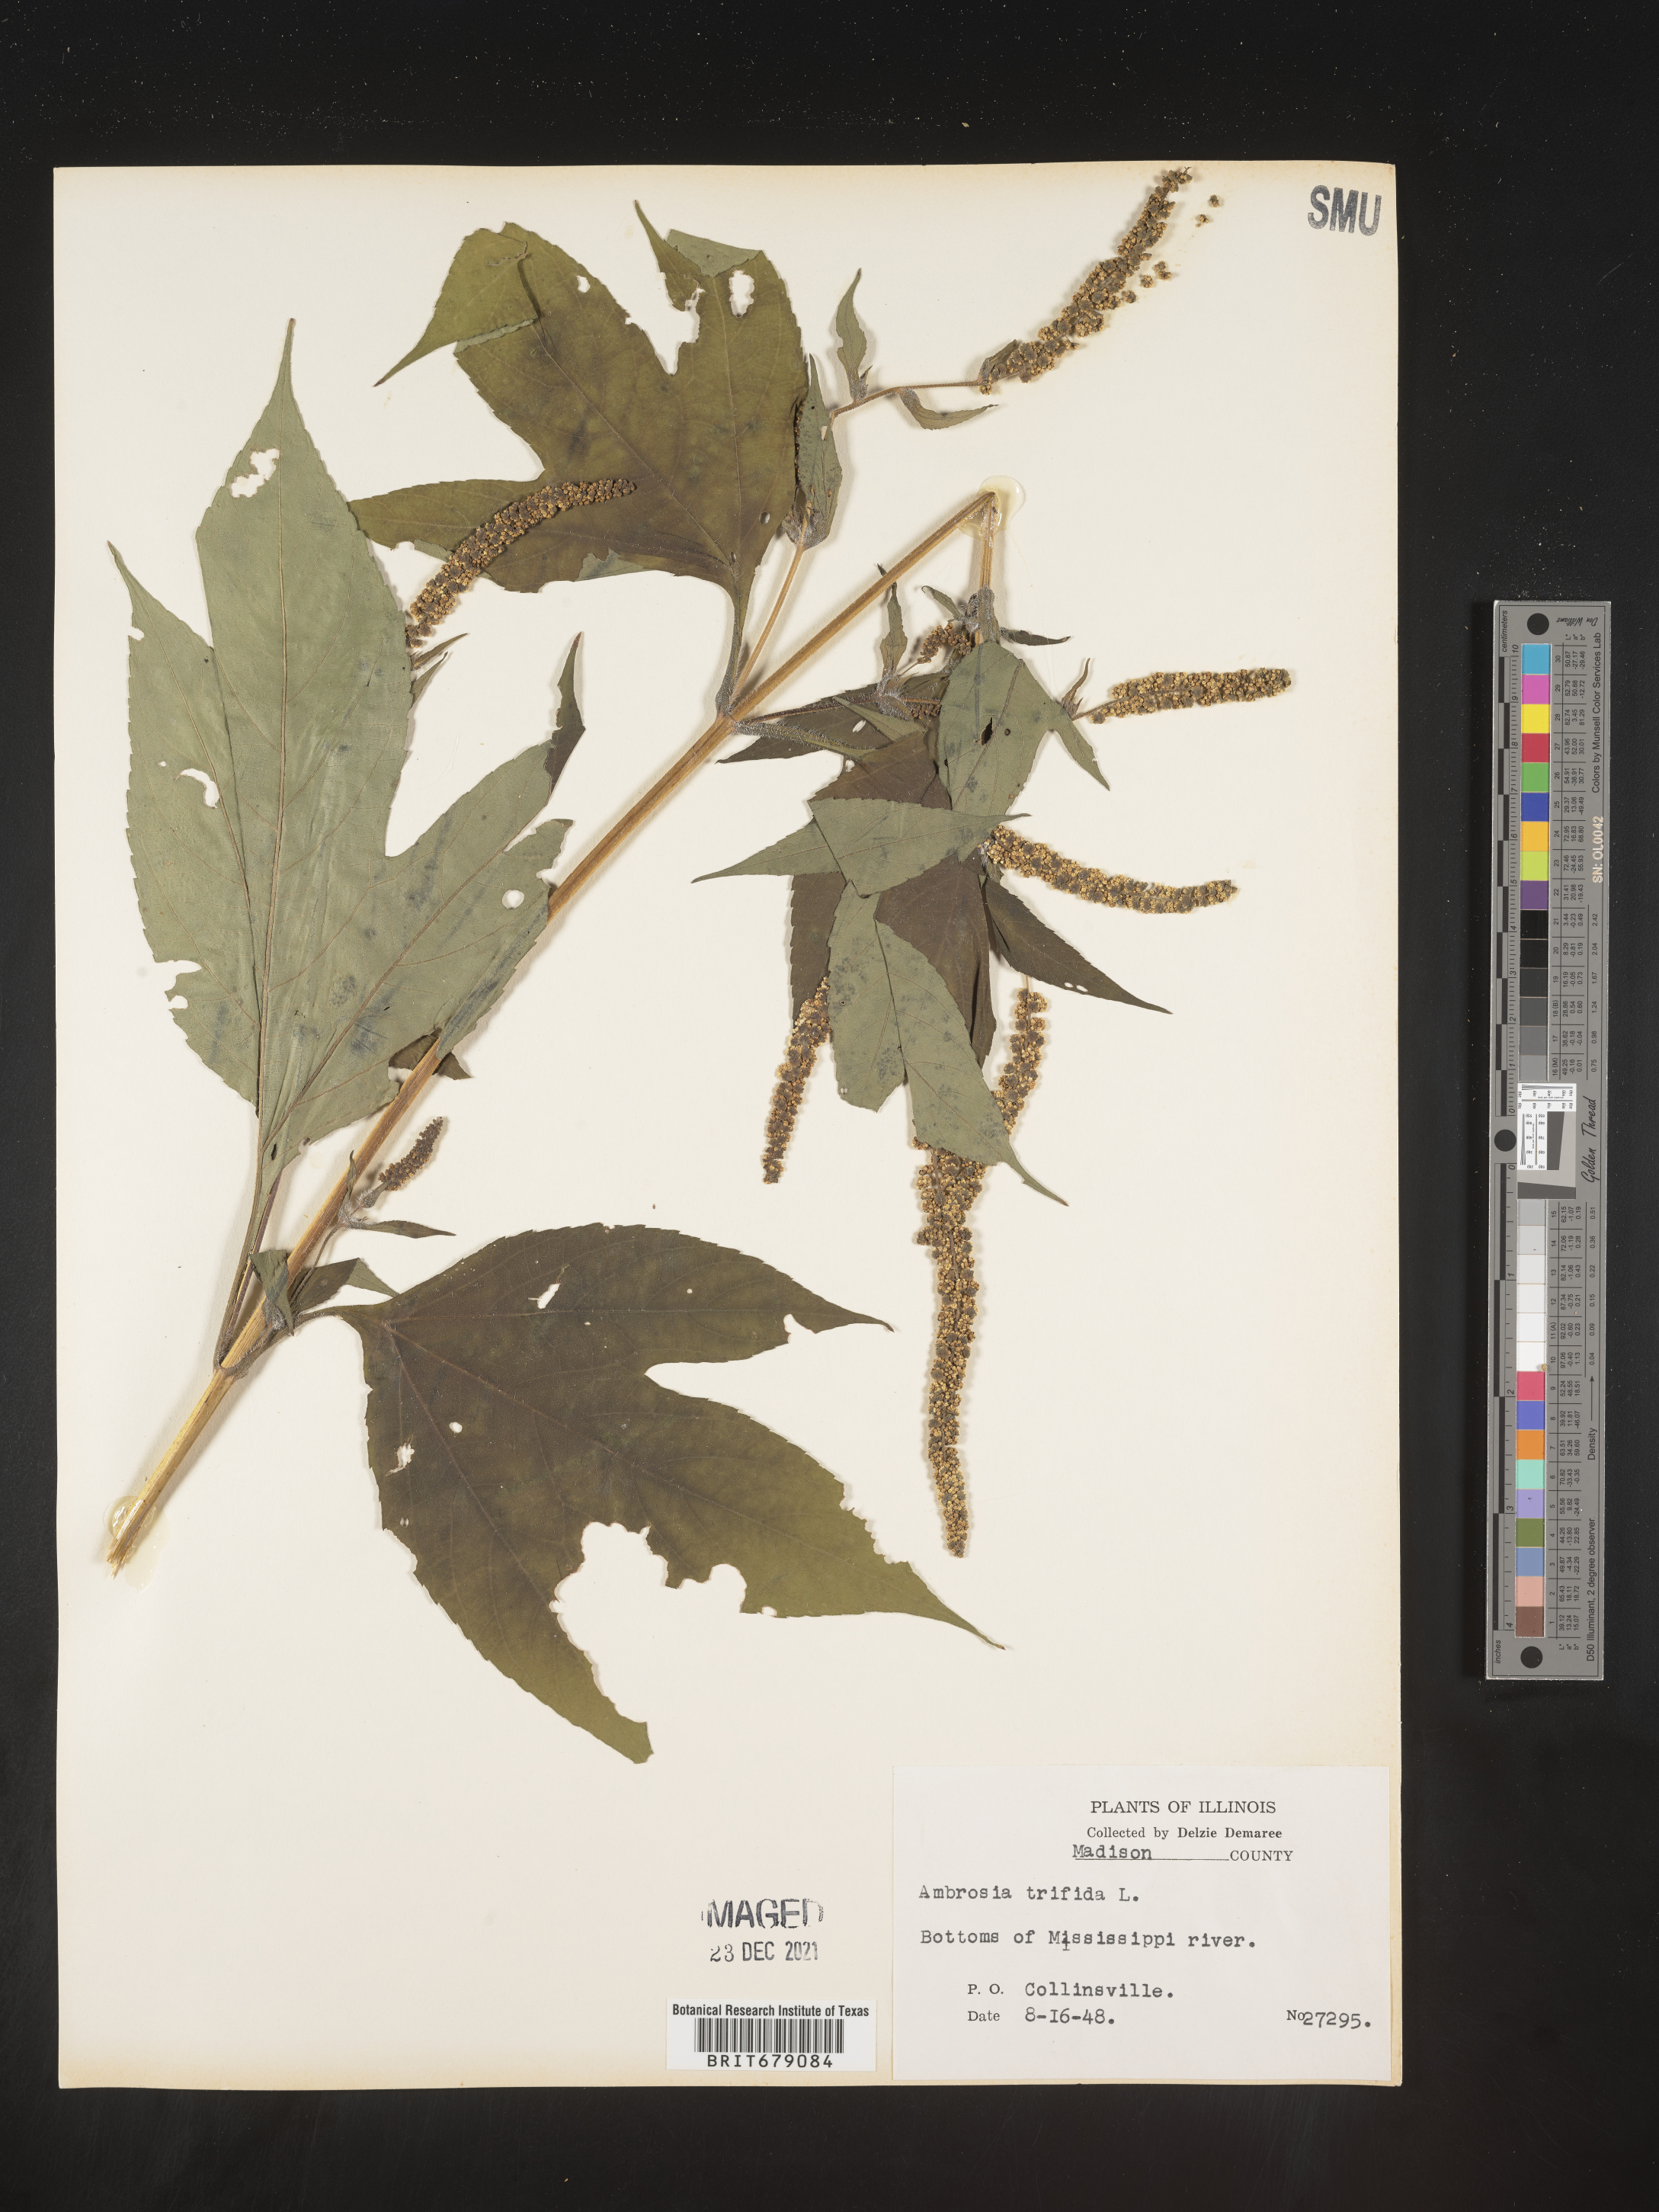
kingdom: Plantae
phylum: Tracheophyta
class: Magnoliopsida
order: Asterales
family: Asteraceae
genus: Ambrosia
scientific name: Ambrosia trifida
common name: Giant ragweed
